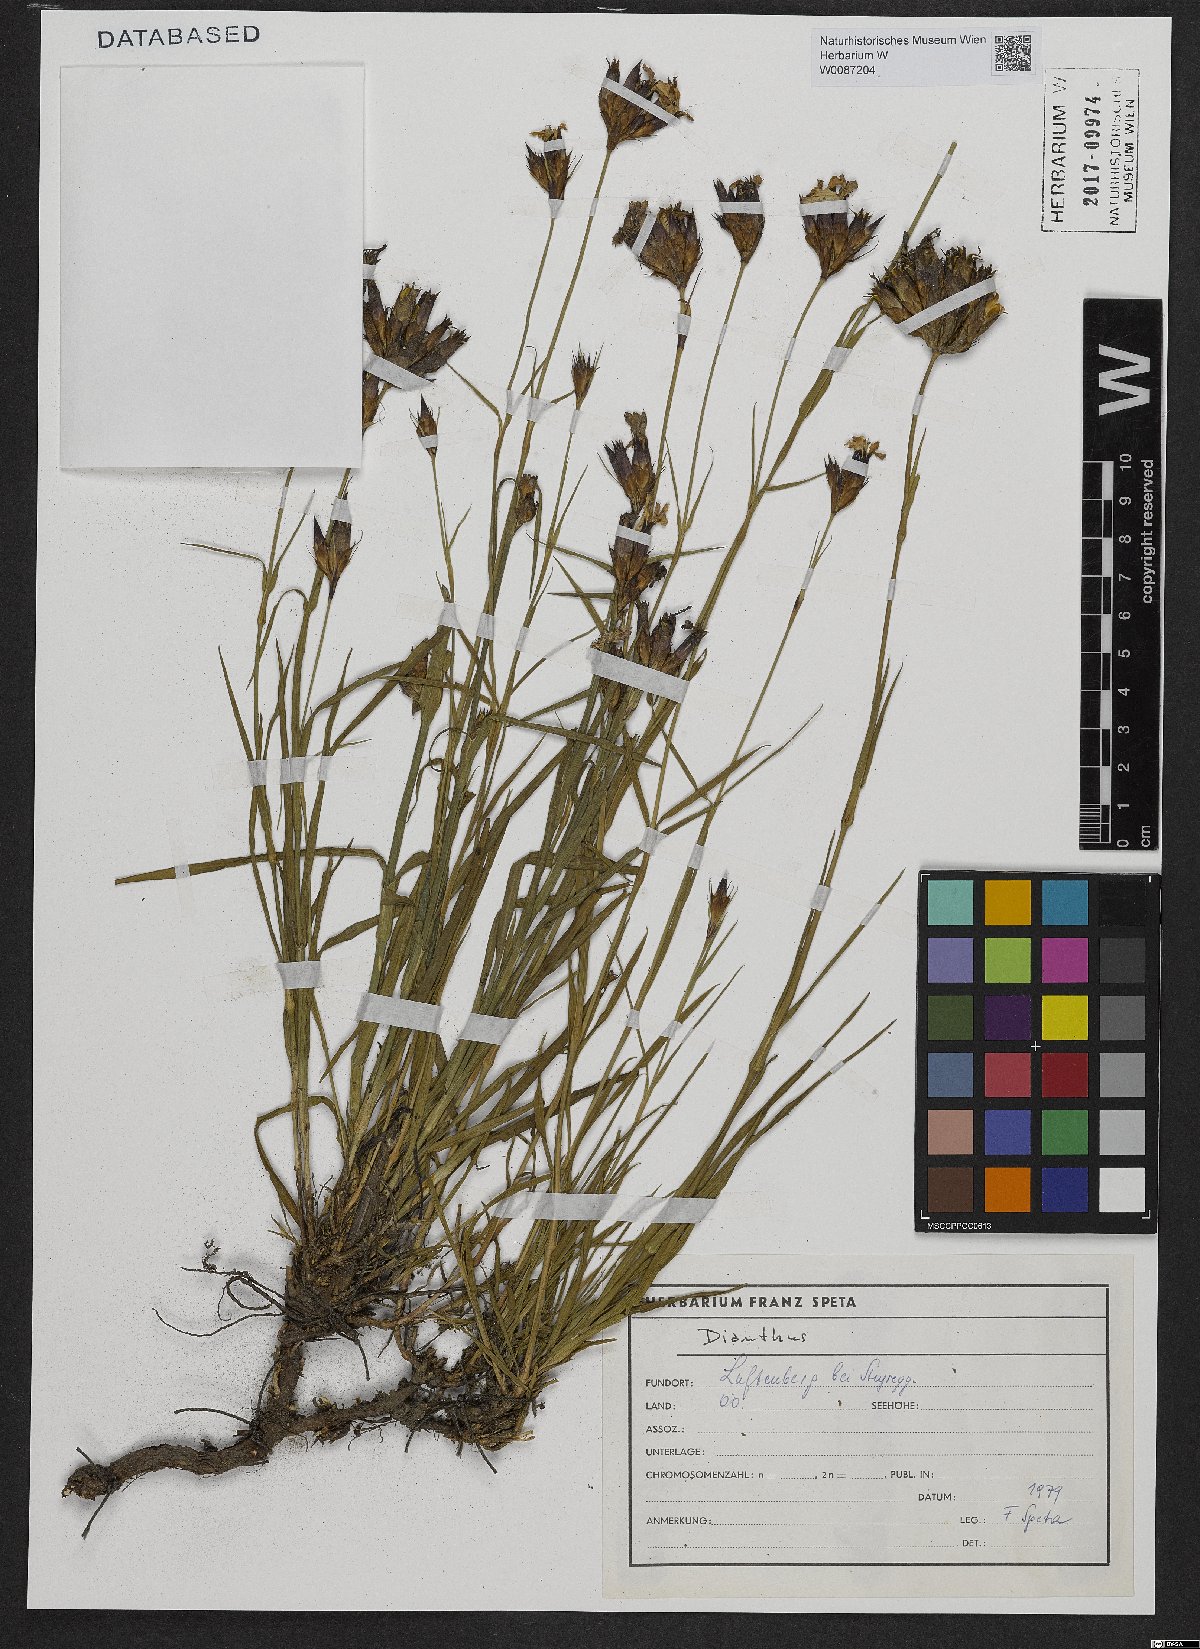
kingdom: Plantae
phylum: Tracheophyta
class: Magnoliopsida
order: Caryophyllales
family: Caryophyllaceae
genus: Dianthus
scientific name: Dianthus carthusianorum
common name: Carthusian pink
